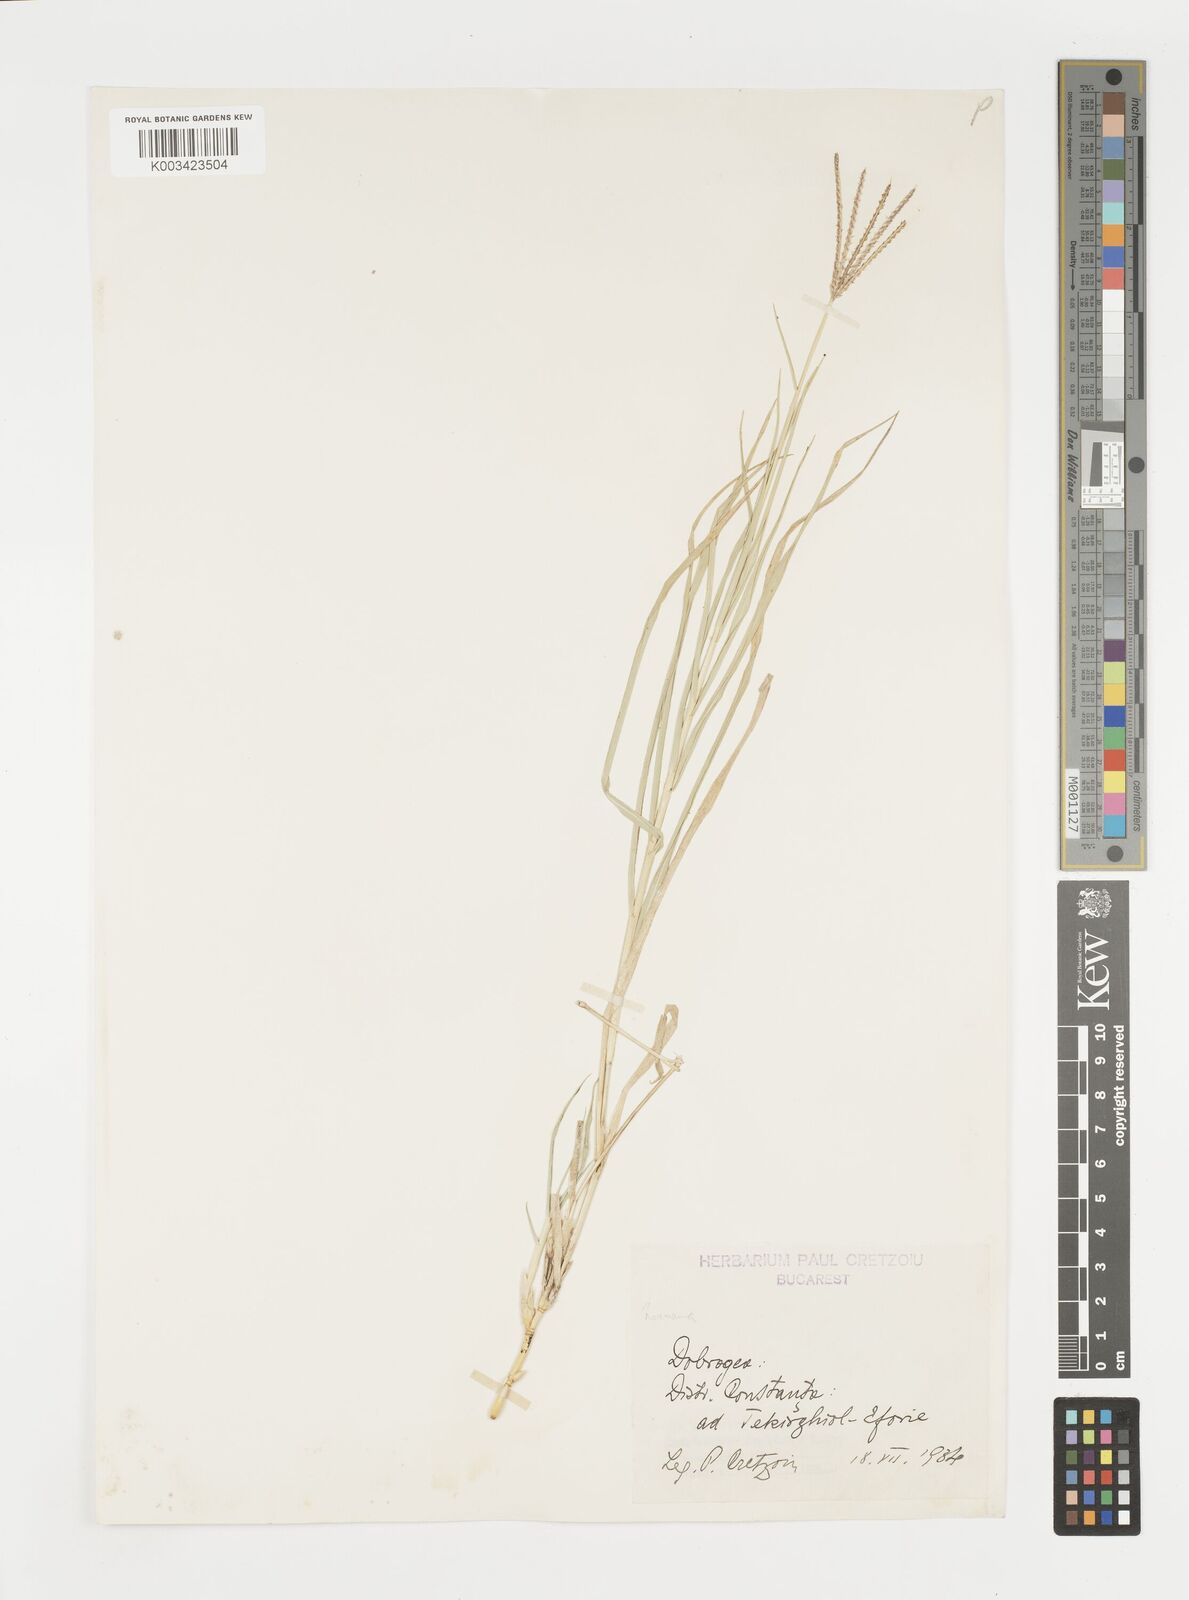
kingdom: Plantae
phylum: Tracheophyta
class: Liliopsida
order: Poales
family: Poaceae
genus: Cynodon
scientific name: Cynodon dactylon
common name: Bermuda grass
